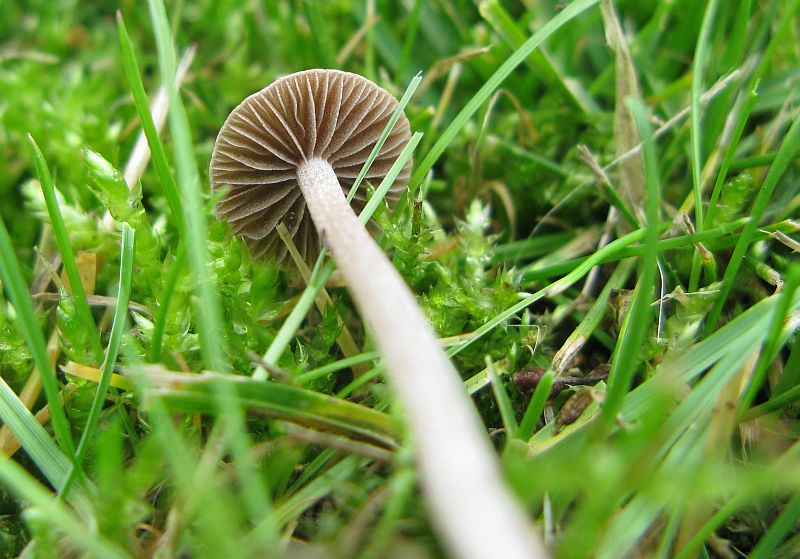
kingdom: Fungi
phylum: Basidiomycota
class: Agaricomycetes
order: Agaricales
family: Bolbitiaceae
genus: Panaeolina
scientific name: Panaeolina foenisecii
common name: høslætsvamp
